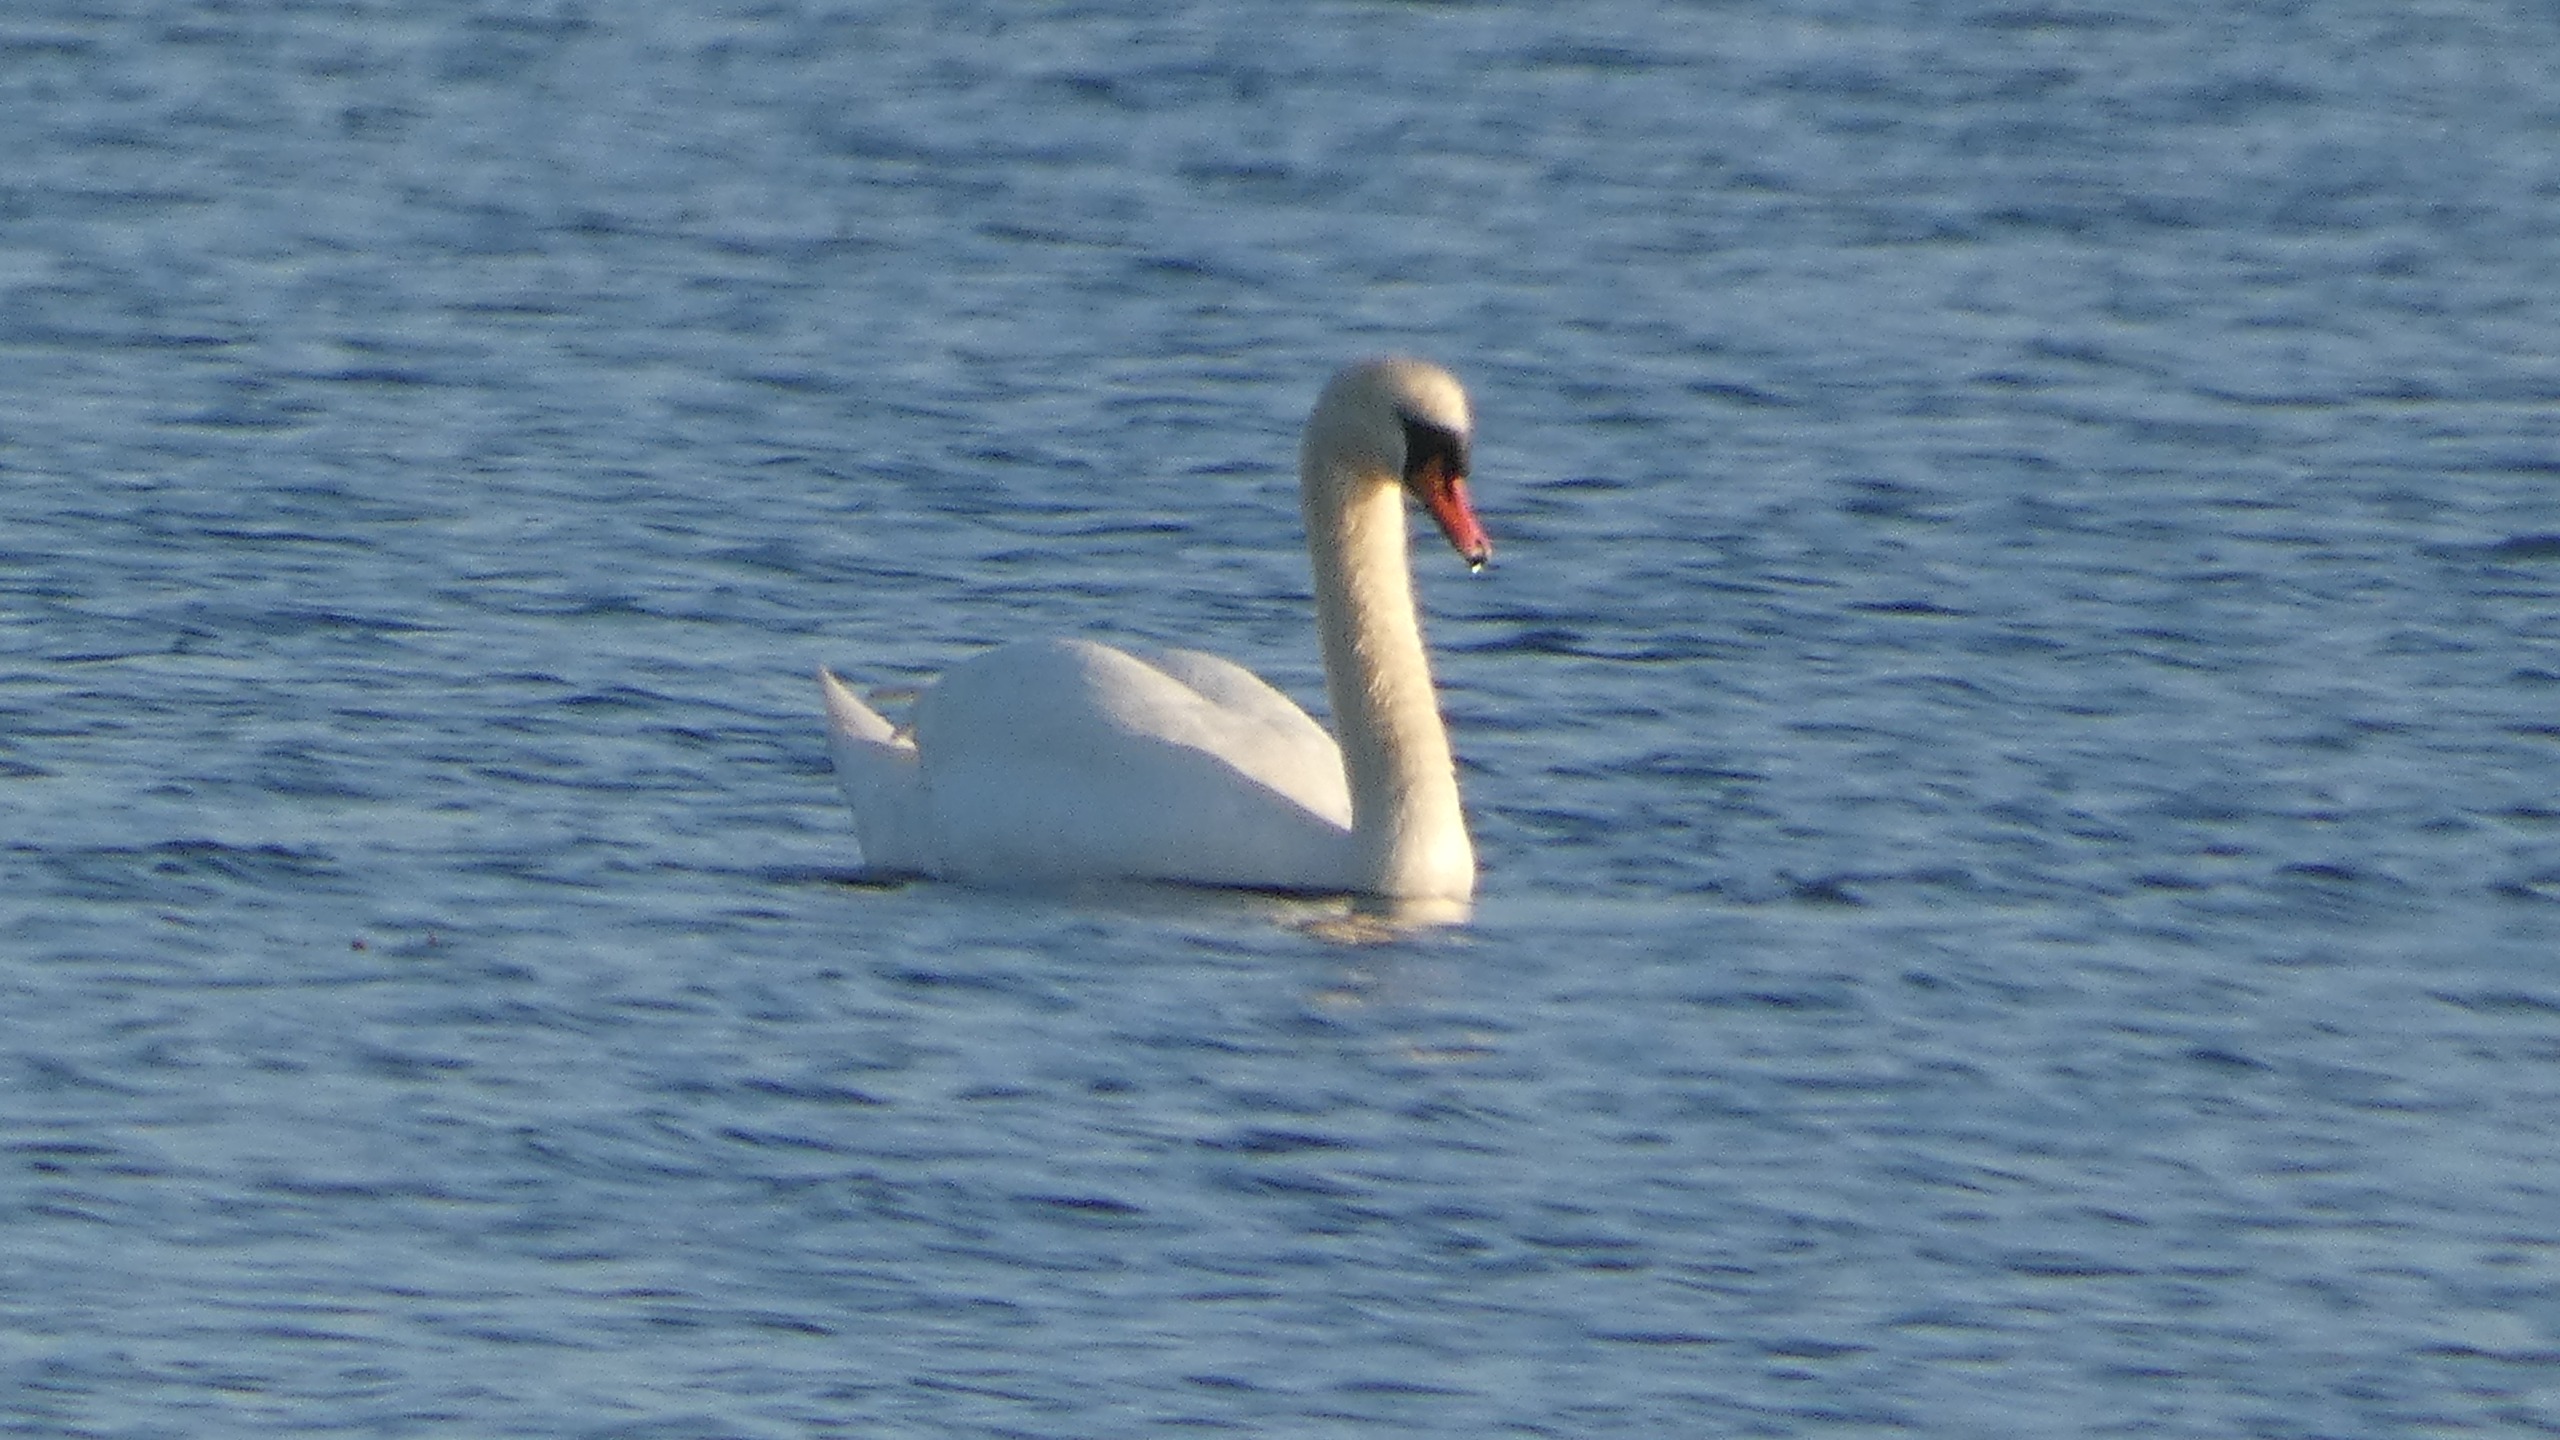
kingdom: Animalia
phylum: Chordata
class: Aves
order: Anseriformes
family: Anatidae
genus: Cygnus
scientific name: Cygnus olor
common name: Knopsvane
